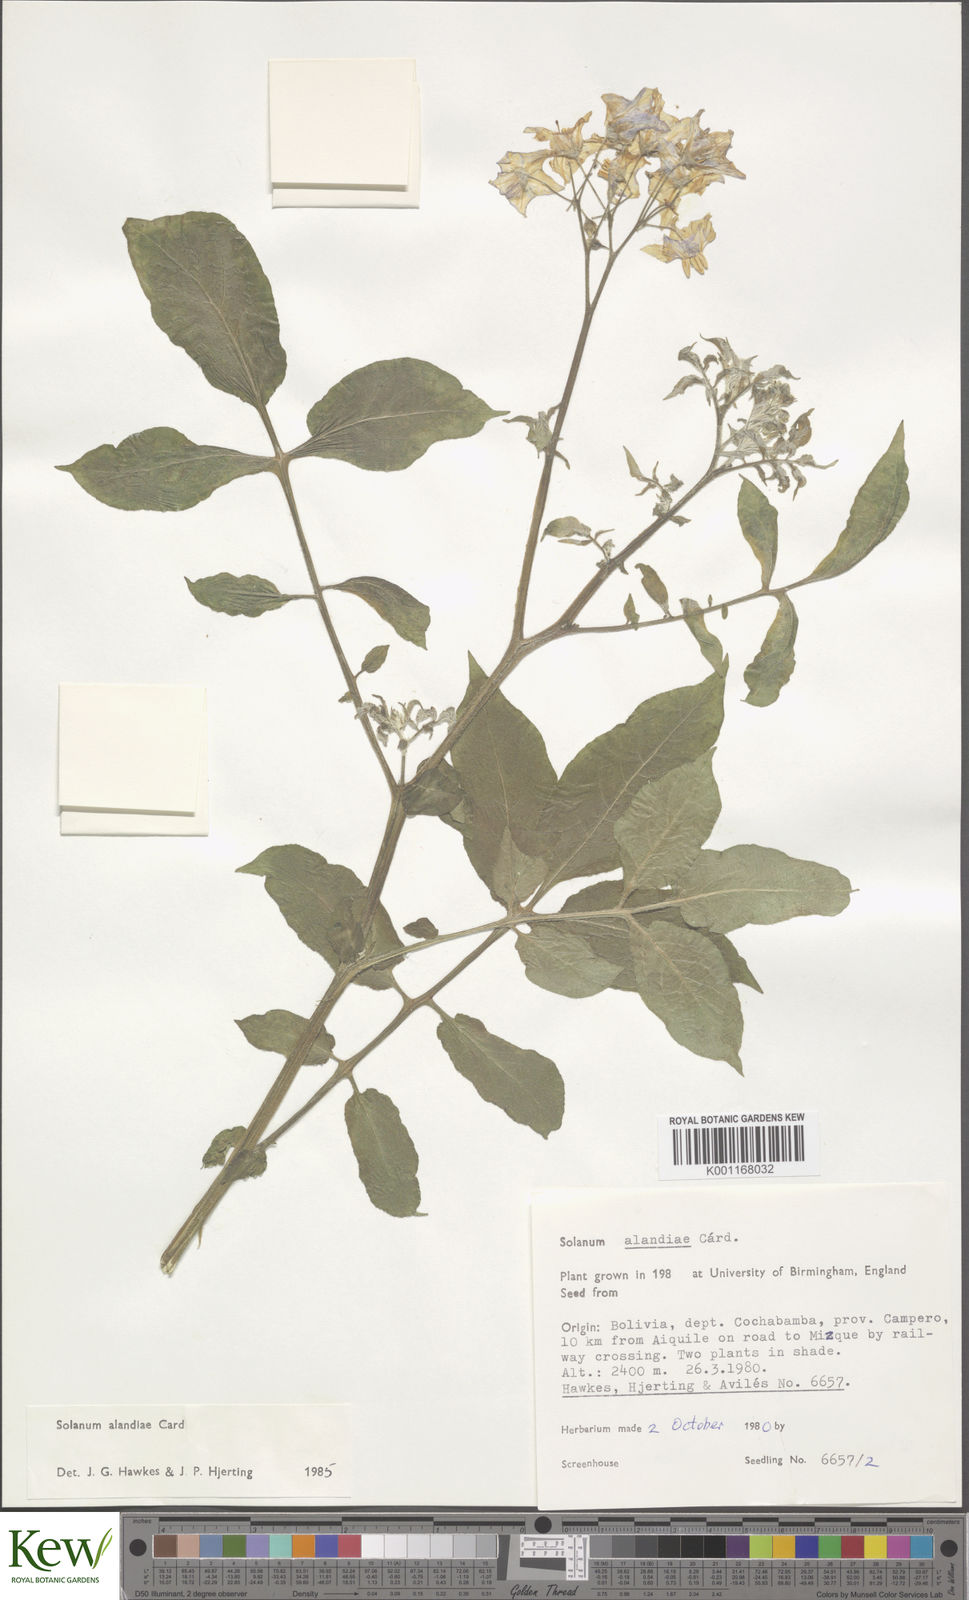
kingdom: Plantae
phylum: Tracheophyta
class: Magnoliopsida
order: Solanales
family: Solanaceae
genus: Solanum
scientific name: Solanum
